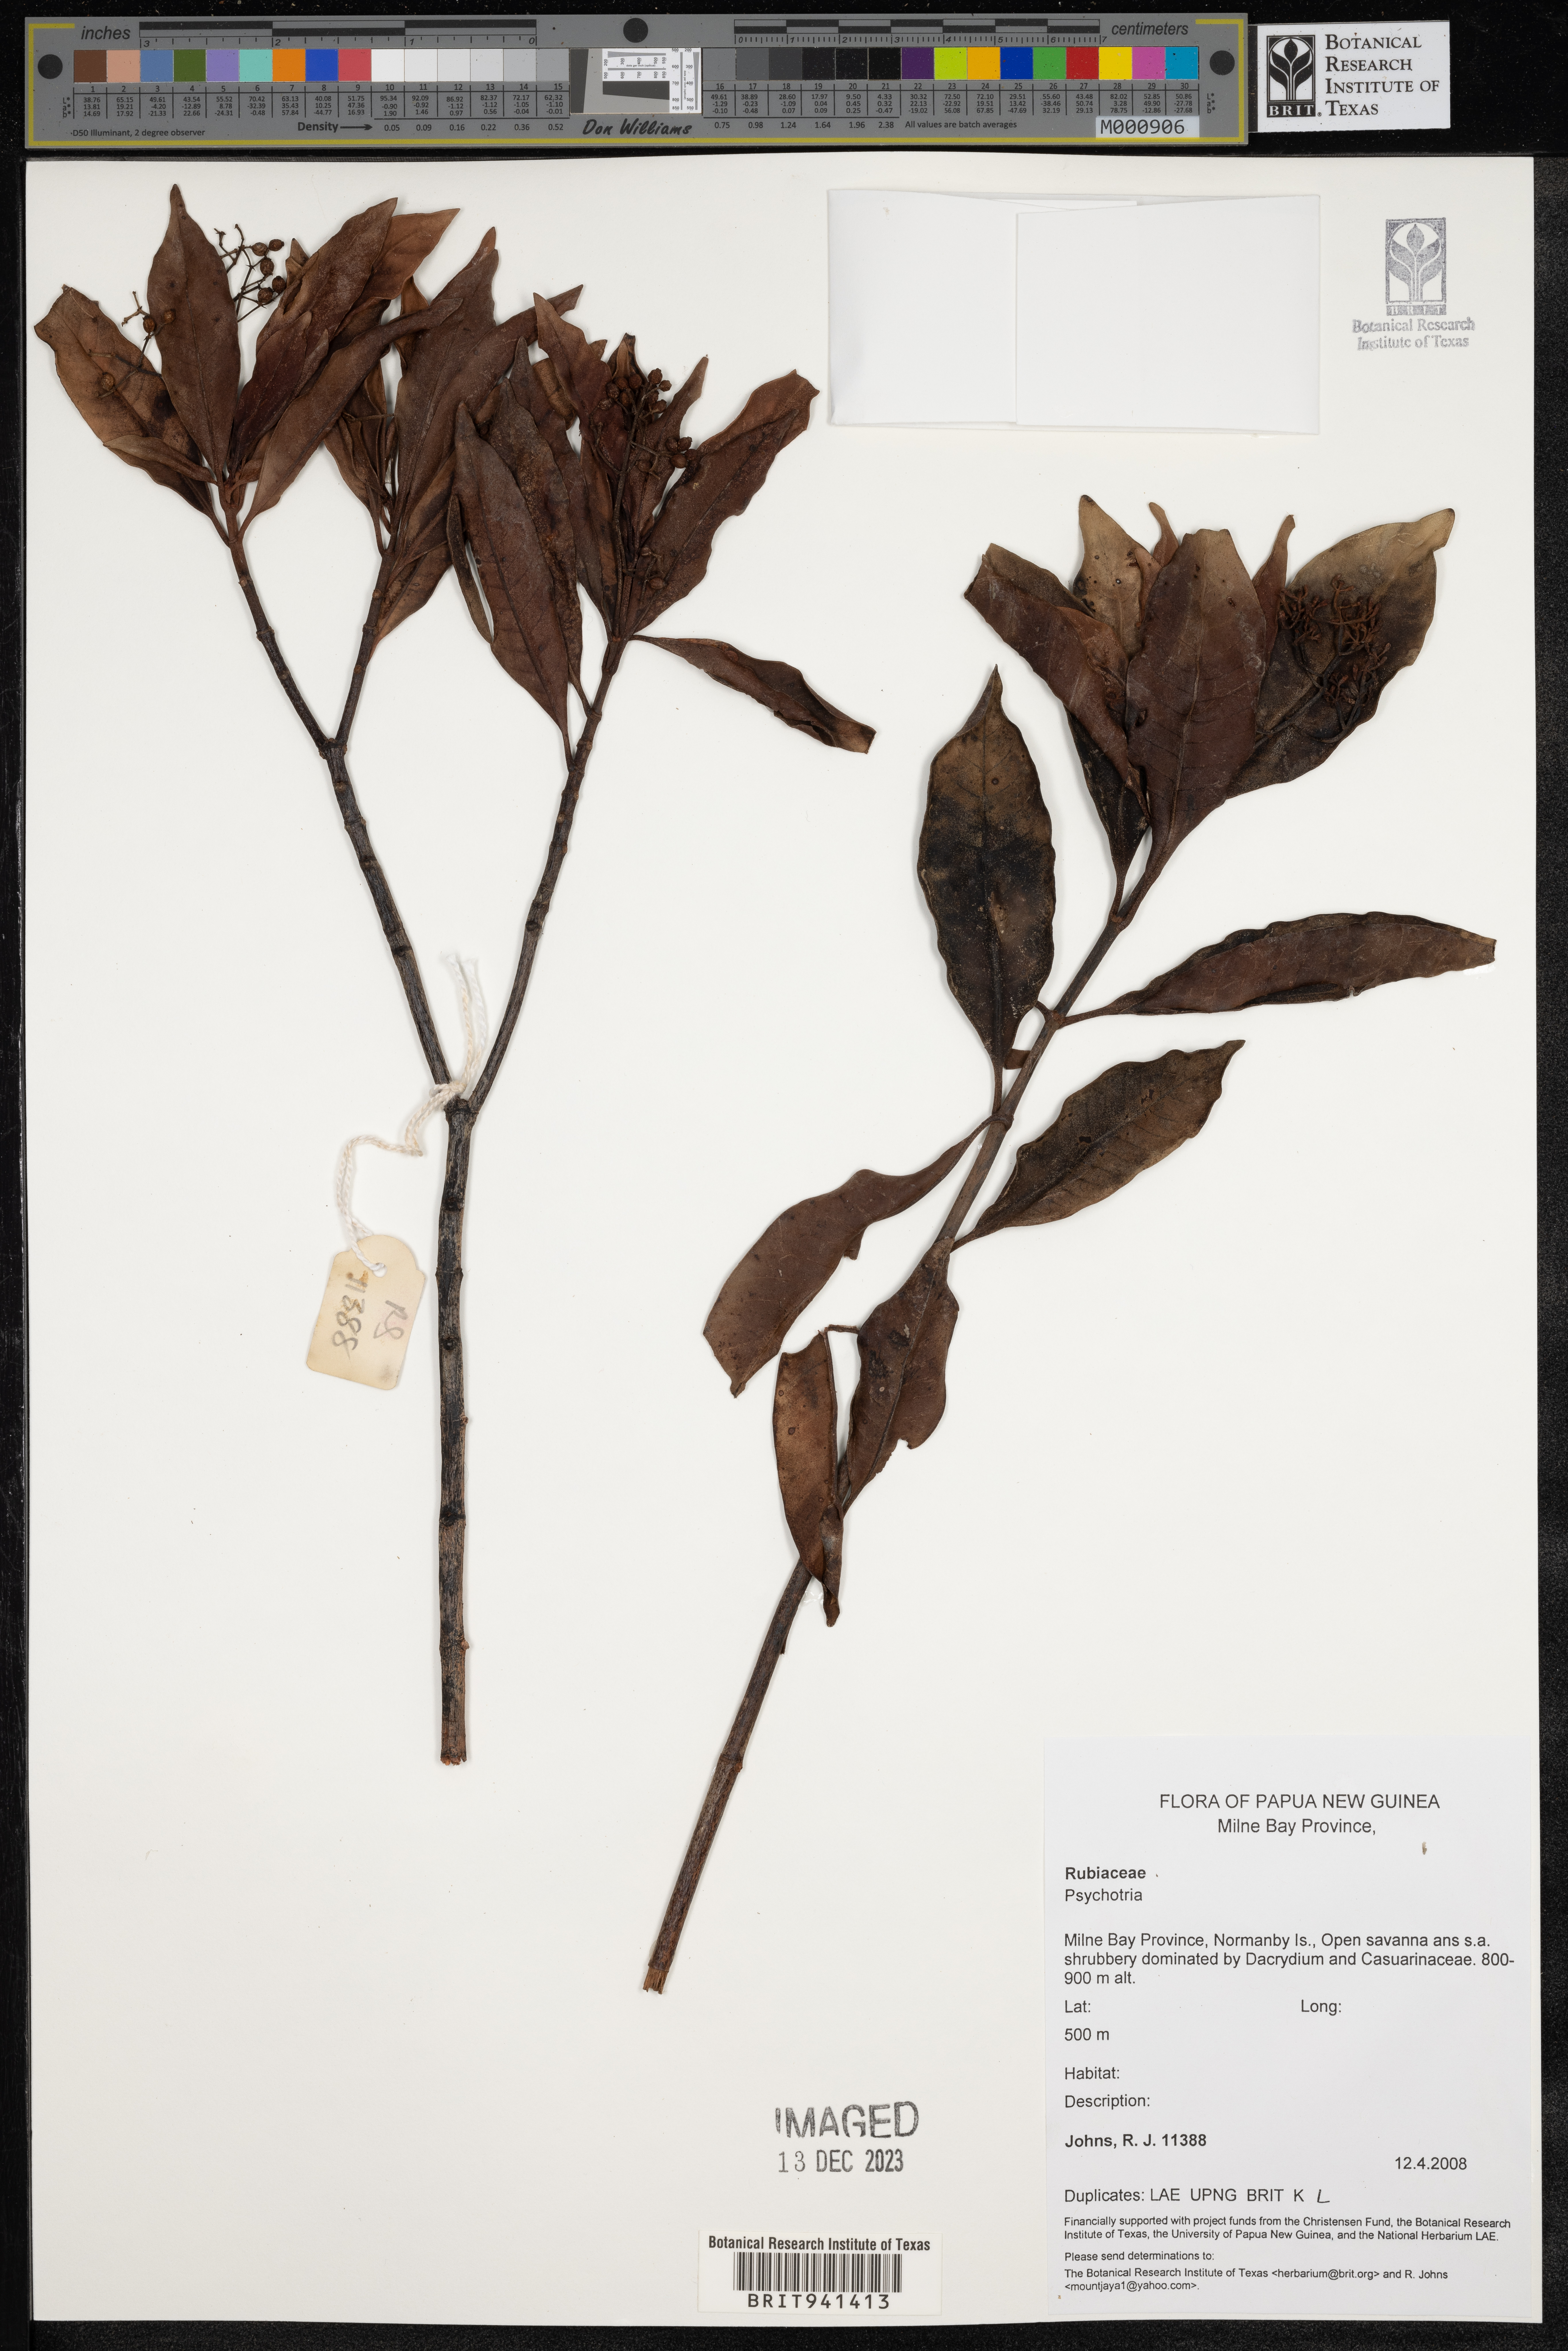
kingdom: Plantae
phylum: Tracheophyta
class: Magnoliopsida
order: Gentianales
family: Rubiaceae
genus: Psychotria
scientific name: Psychotria
